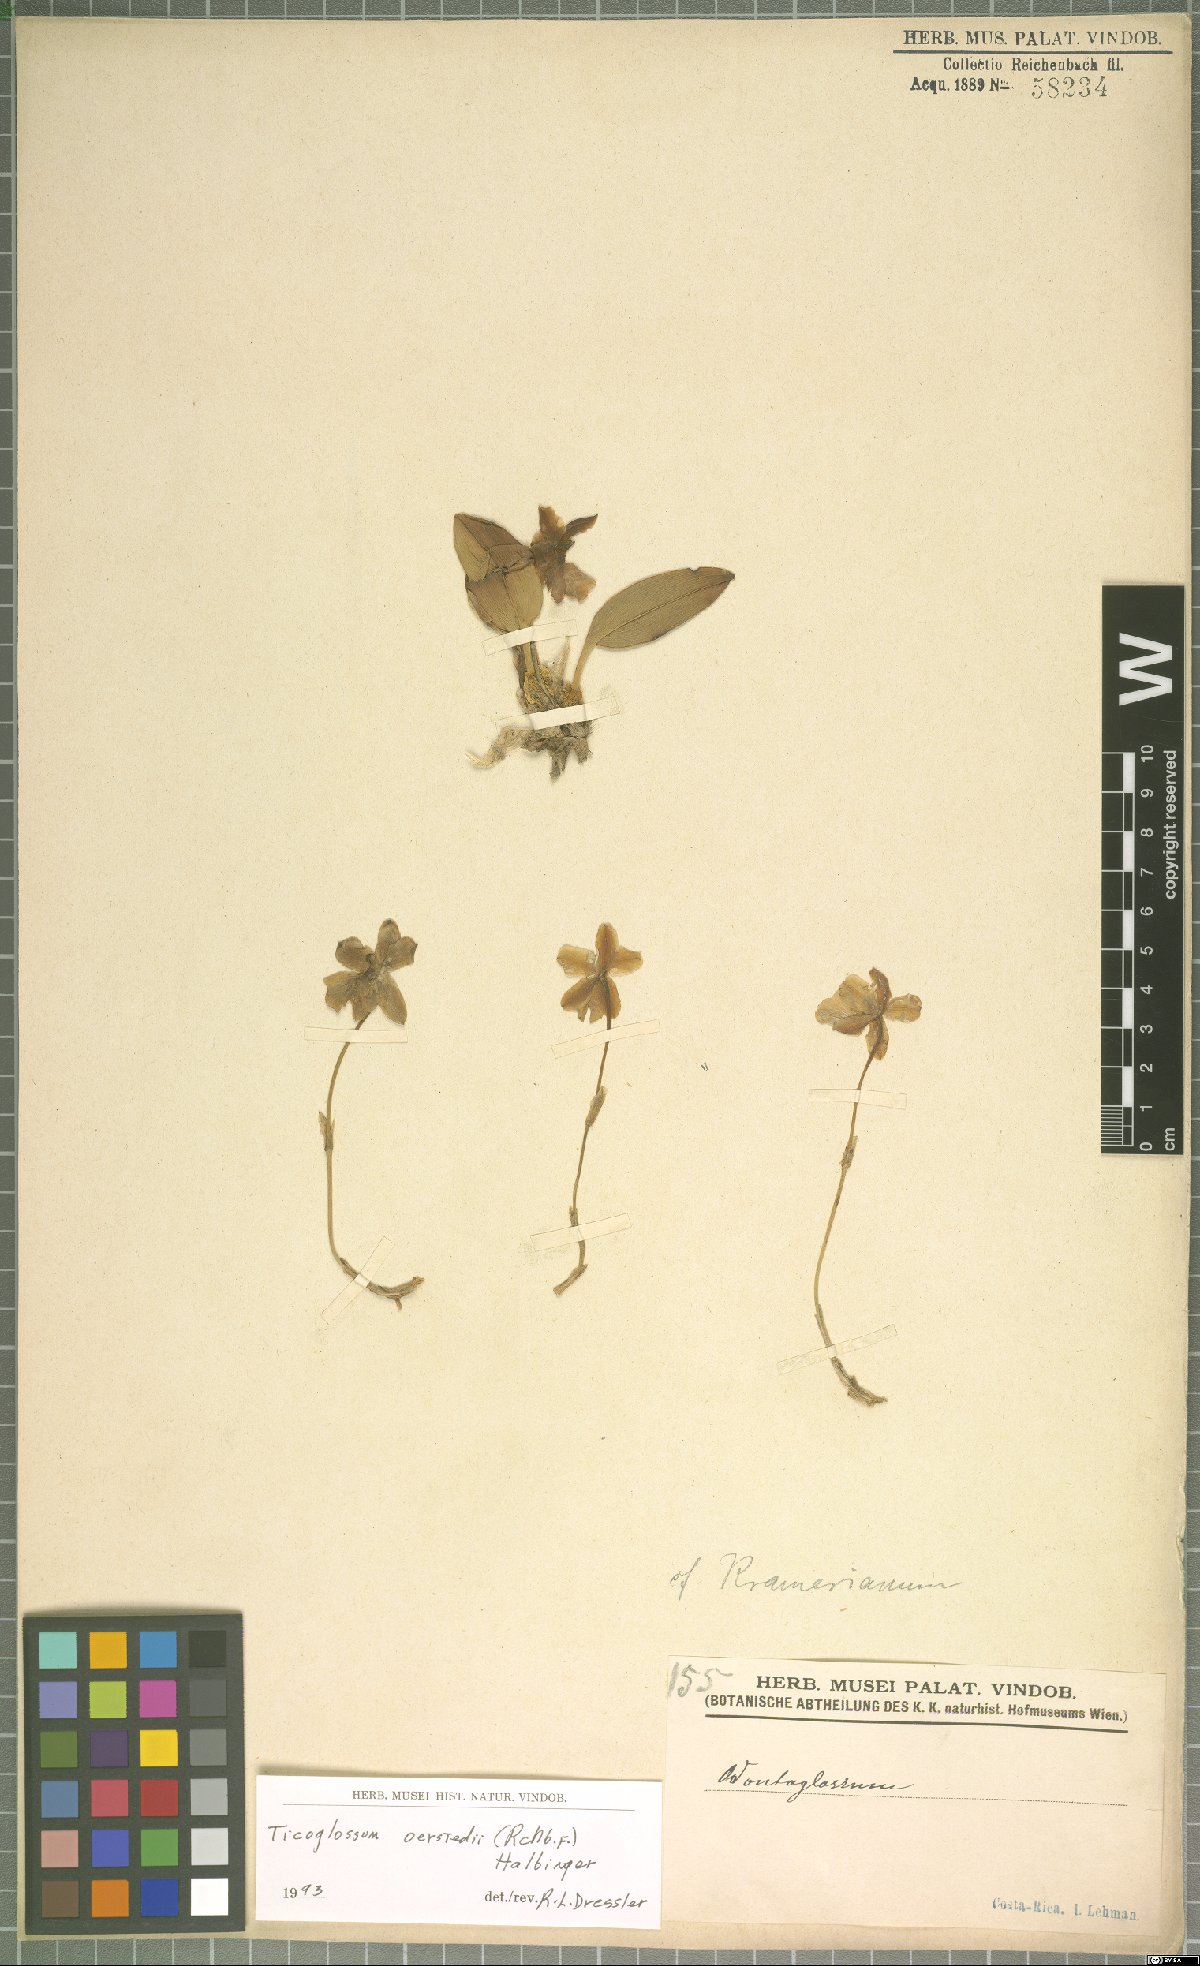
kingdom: Plantae
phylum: Tracheophyta
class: Liliopsida
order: Asparagales
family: Orchidaceae
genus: Rossioglossum
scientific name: Rossioglossum oerstedii
